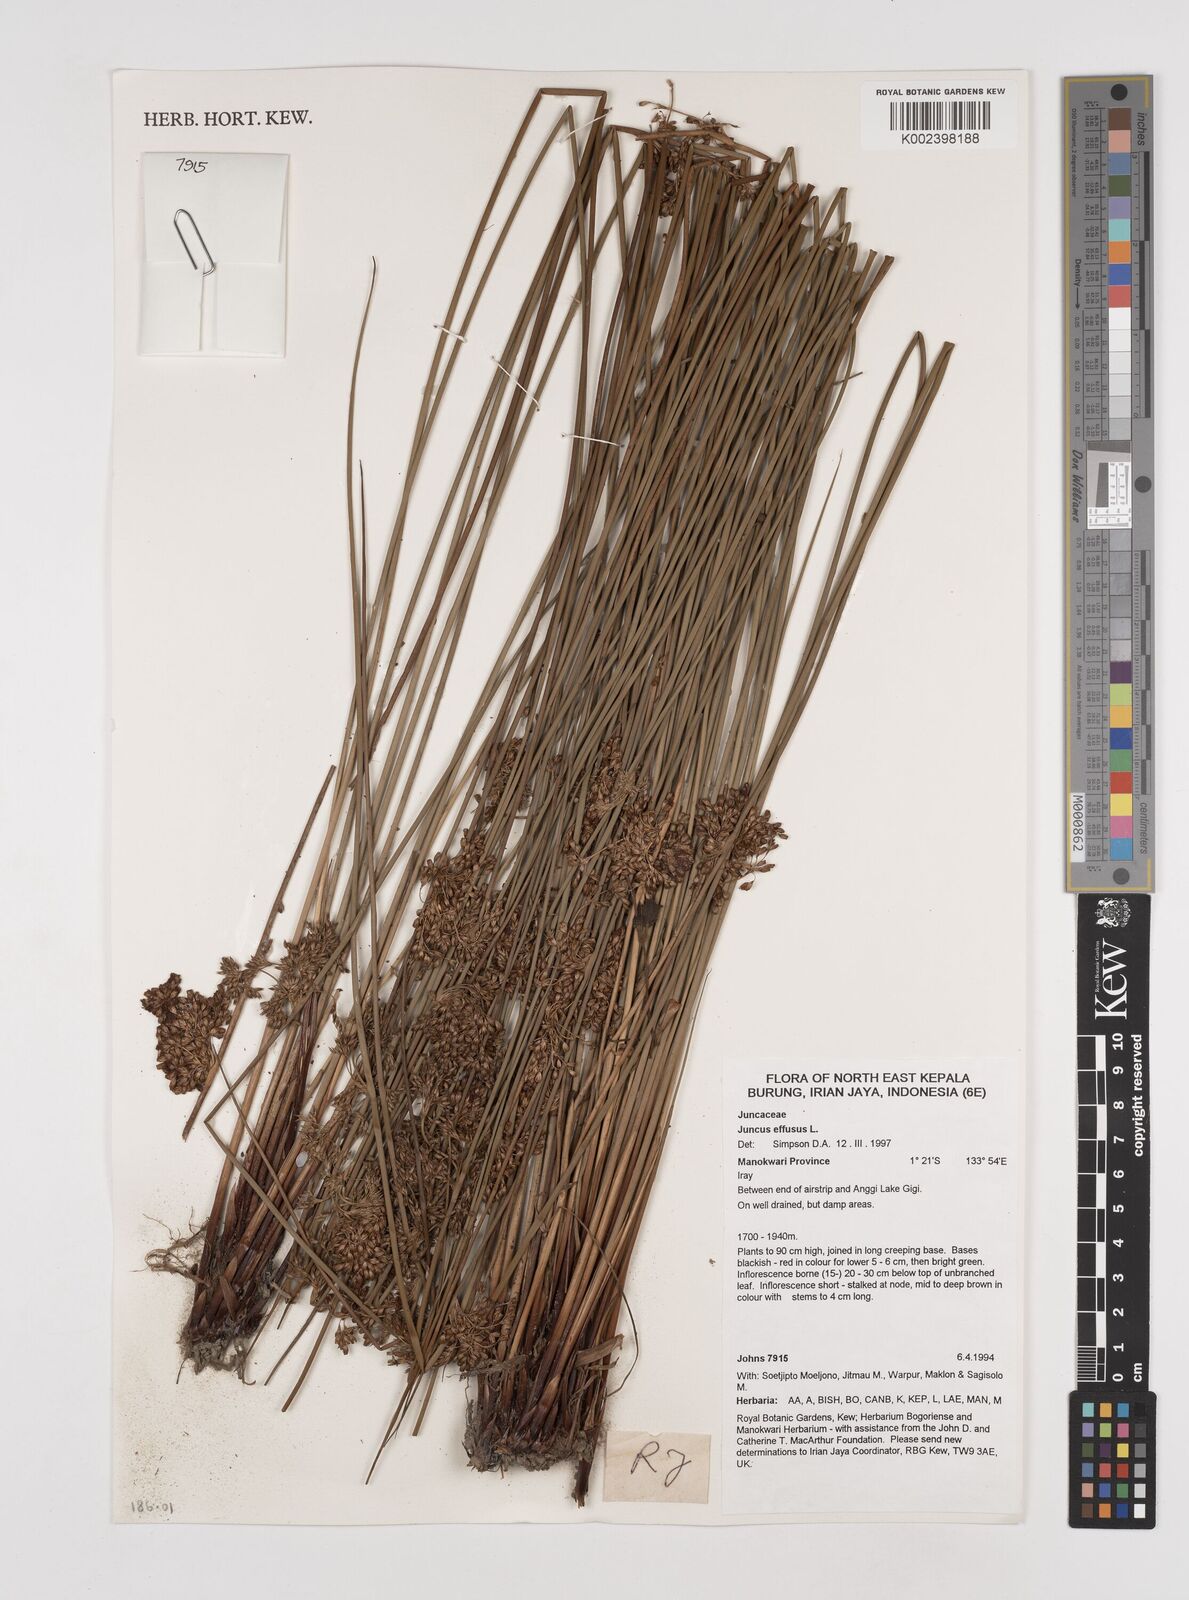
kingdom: Plantae
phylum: Tracheophyta
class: Liliopsida
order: Poales
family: Juncaceae
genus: Juncus
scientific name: Juncus decipiens
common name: Lamp rush
